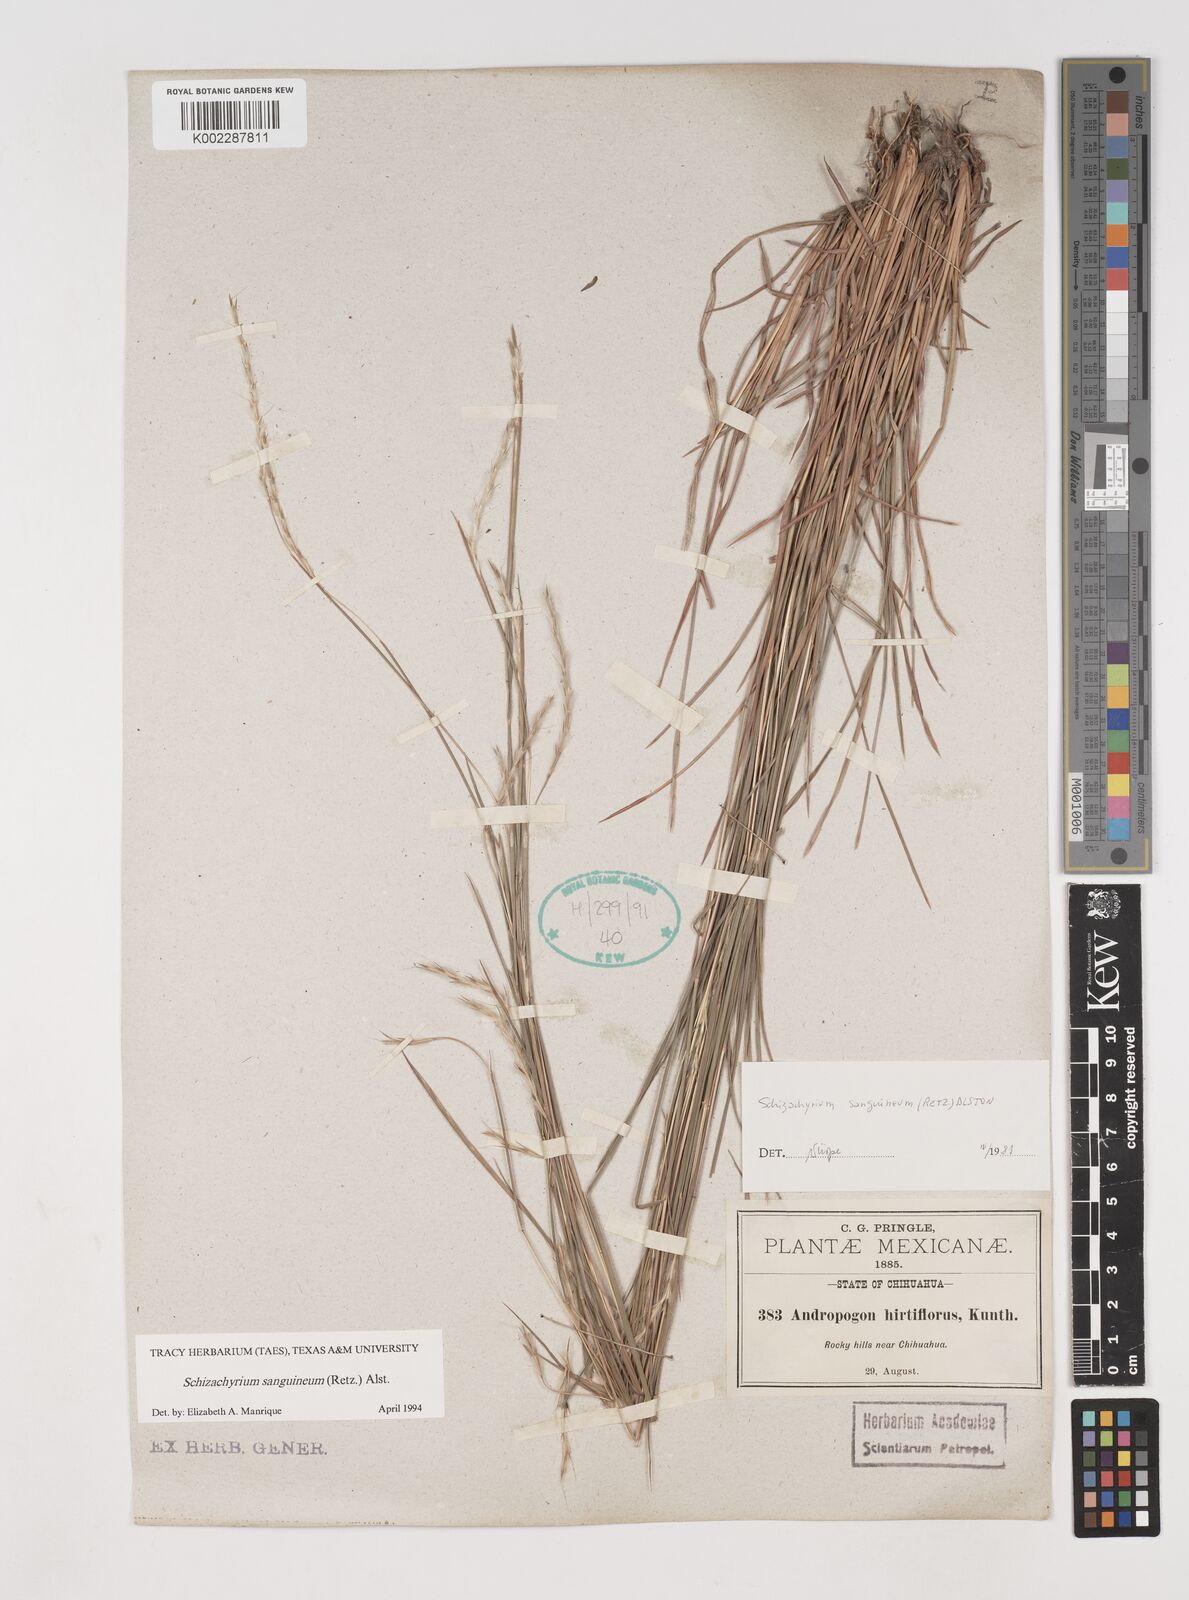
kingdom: Plantae
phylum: Tracheophyta
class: Liliopsida
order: Poales
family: Poaceae
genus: Schizachyrium
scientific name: Schizachyrium sanguineum
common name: Crimson bluestem
